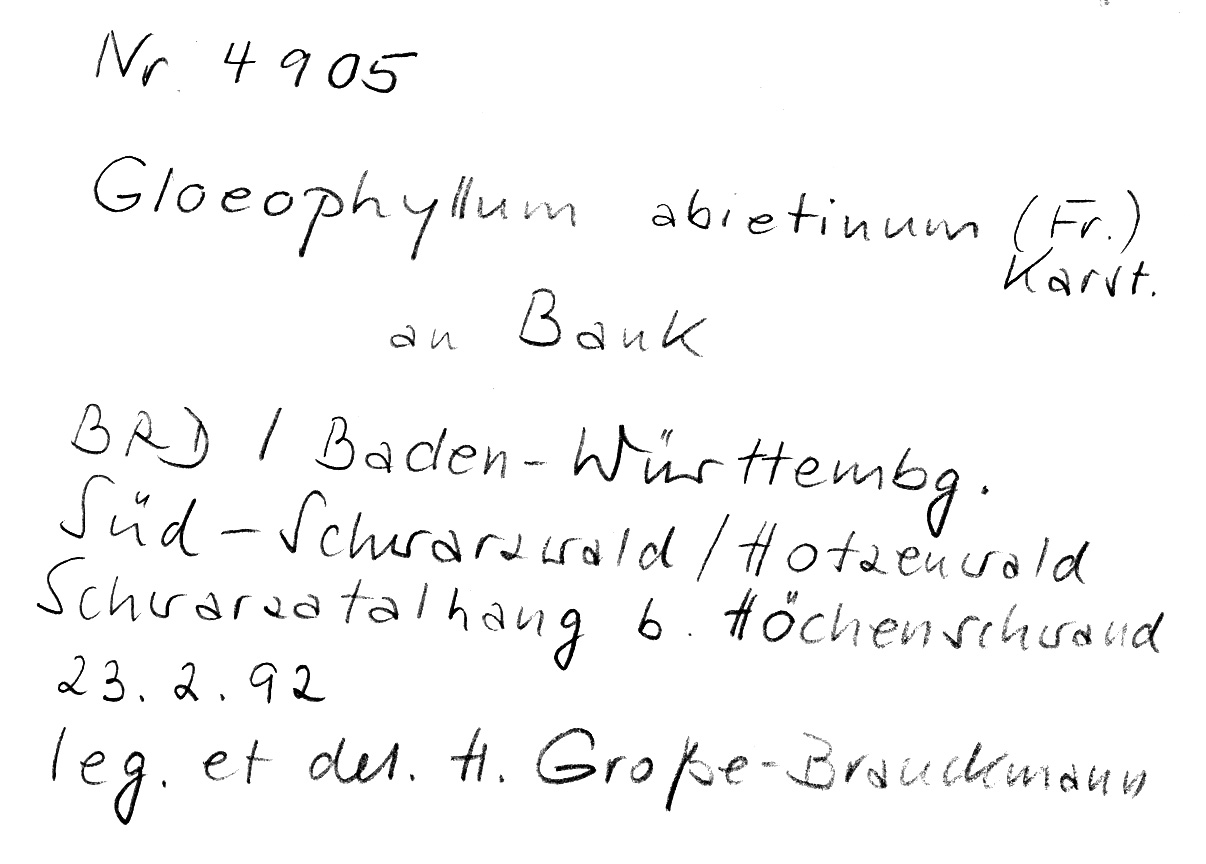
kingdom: Fungi
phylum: Basidiomycota
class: Agaricomycetes
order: Gloeophyllales
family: Gloeophyllaceae
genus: Gloeophyllum
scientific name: Gloeophyllum abietinum
